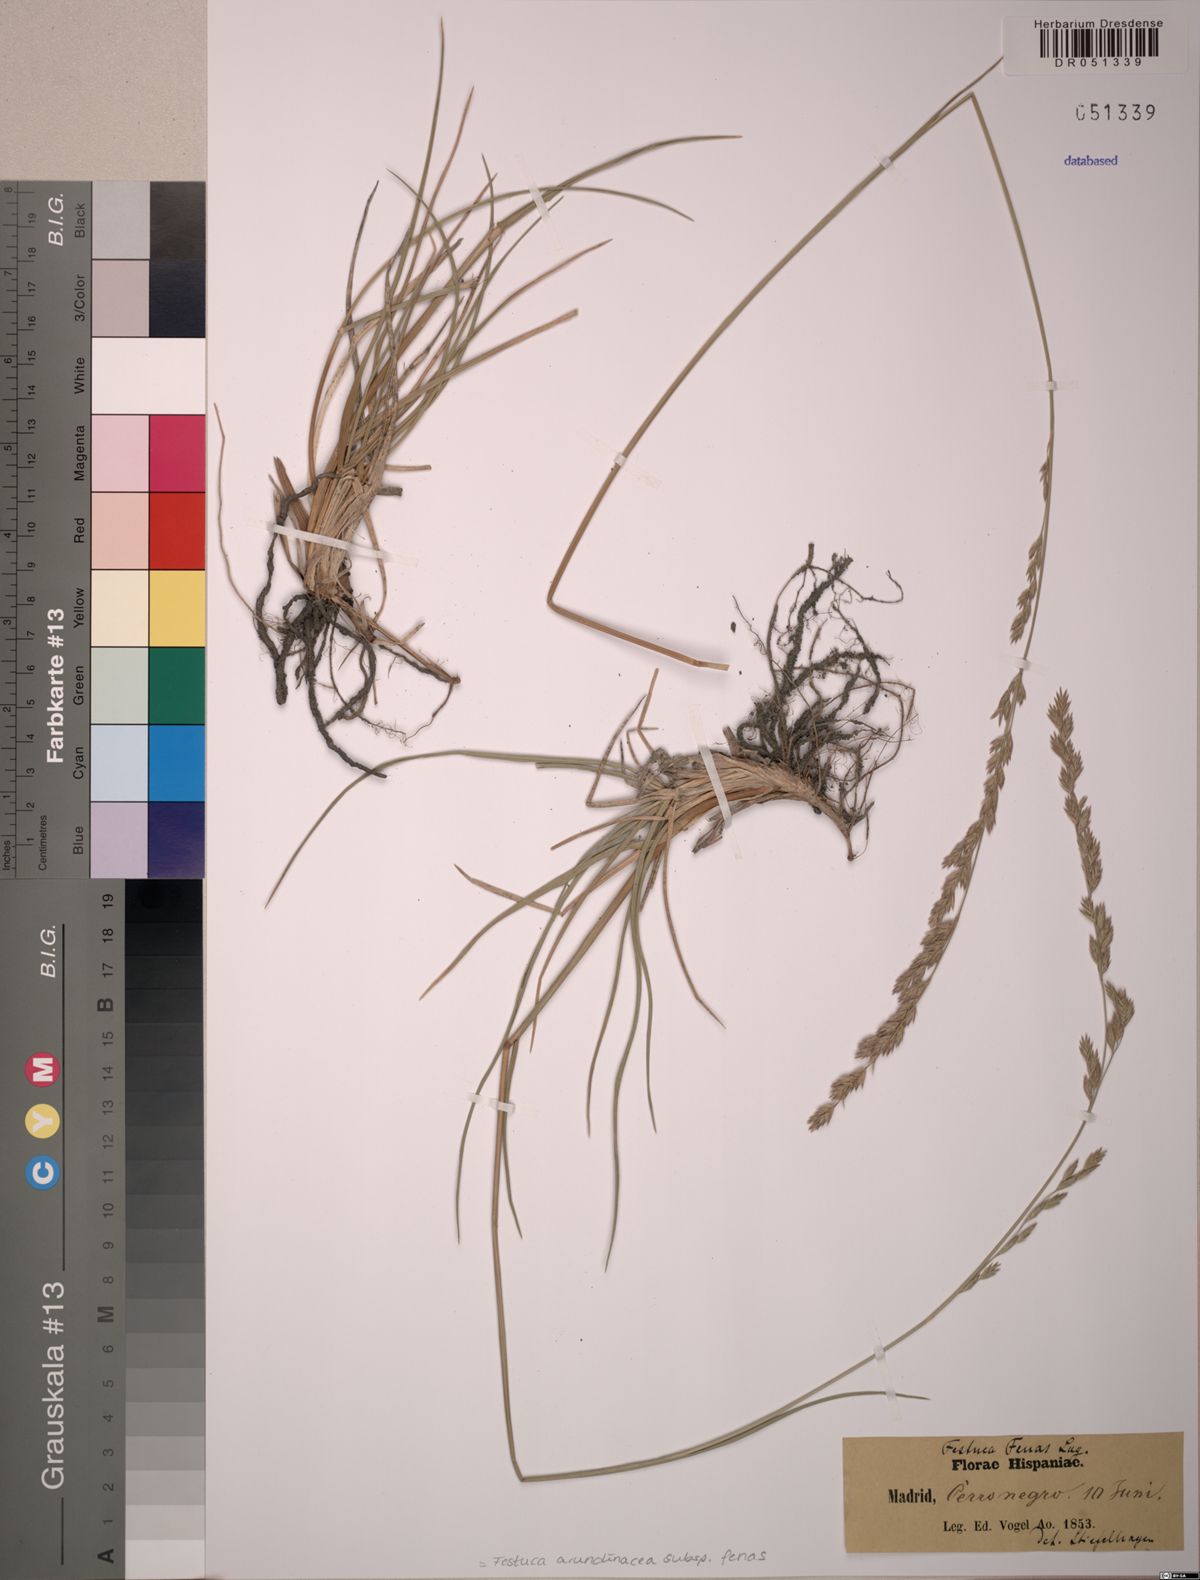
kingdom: Plantae
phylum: Tracheophyta
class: Liliopsida
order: Poales
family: Poaceae
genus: Lolium
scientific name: Lolium interruptum
